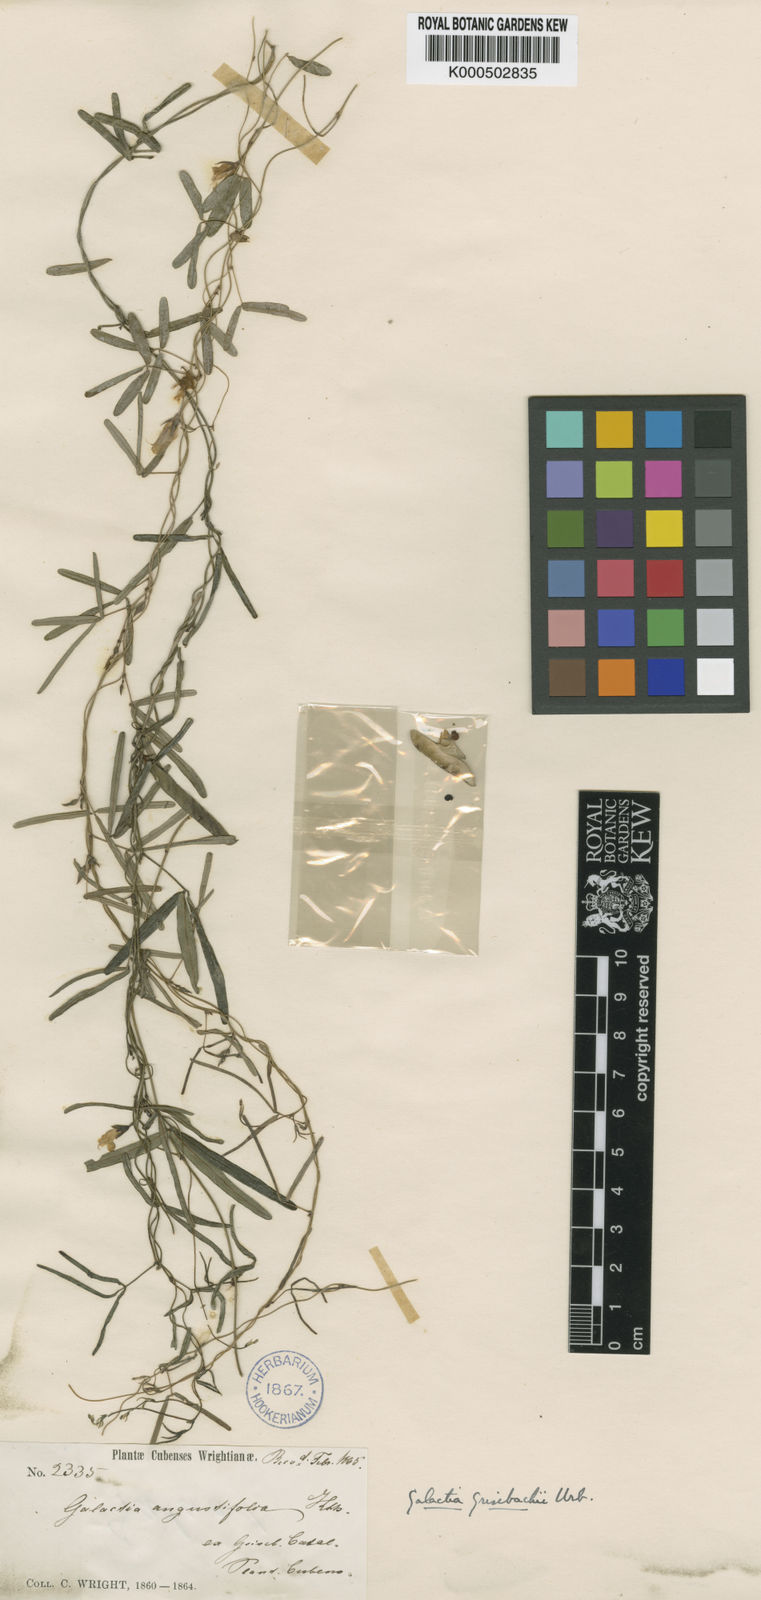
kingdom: Plantae
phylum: Tracheophyta
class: Magnoliopsida
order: Fabales
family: Fabaceae
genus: Galactia
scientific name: Galactia parvifolia
